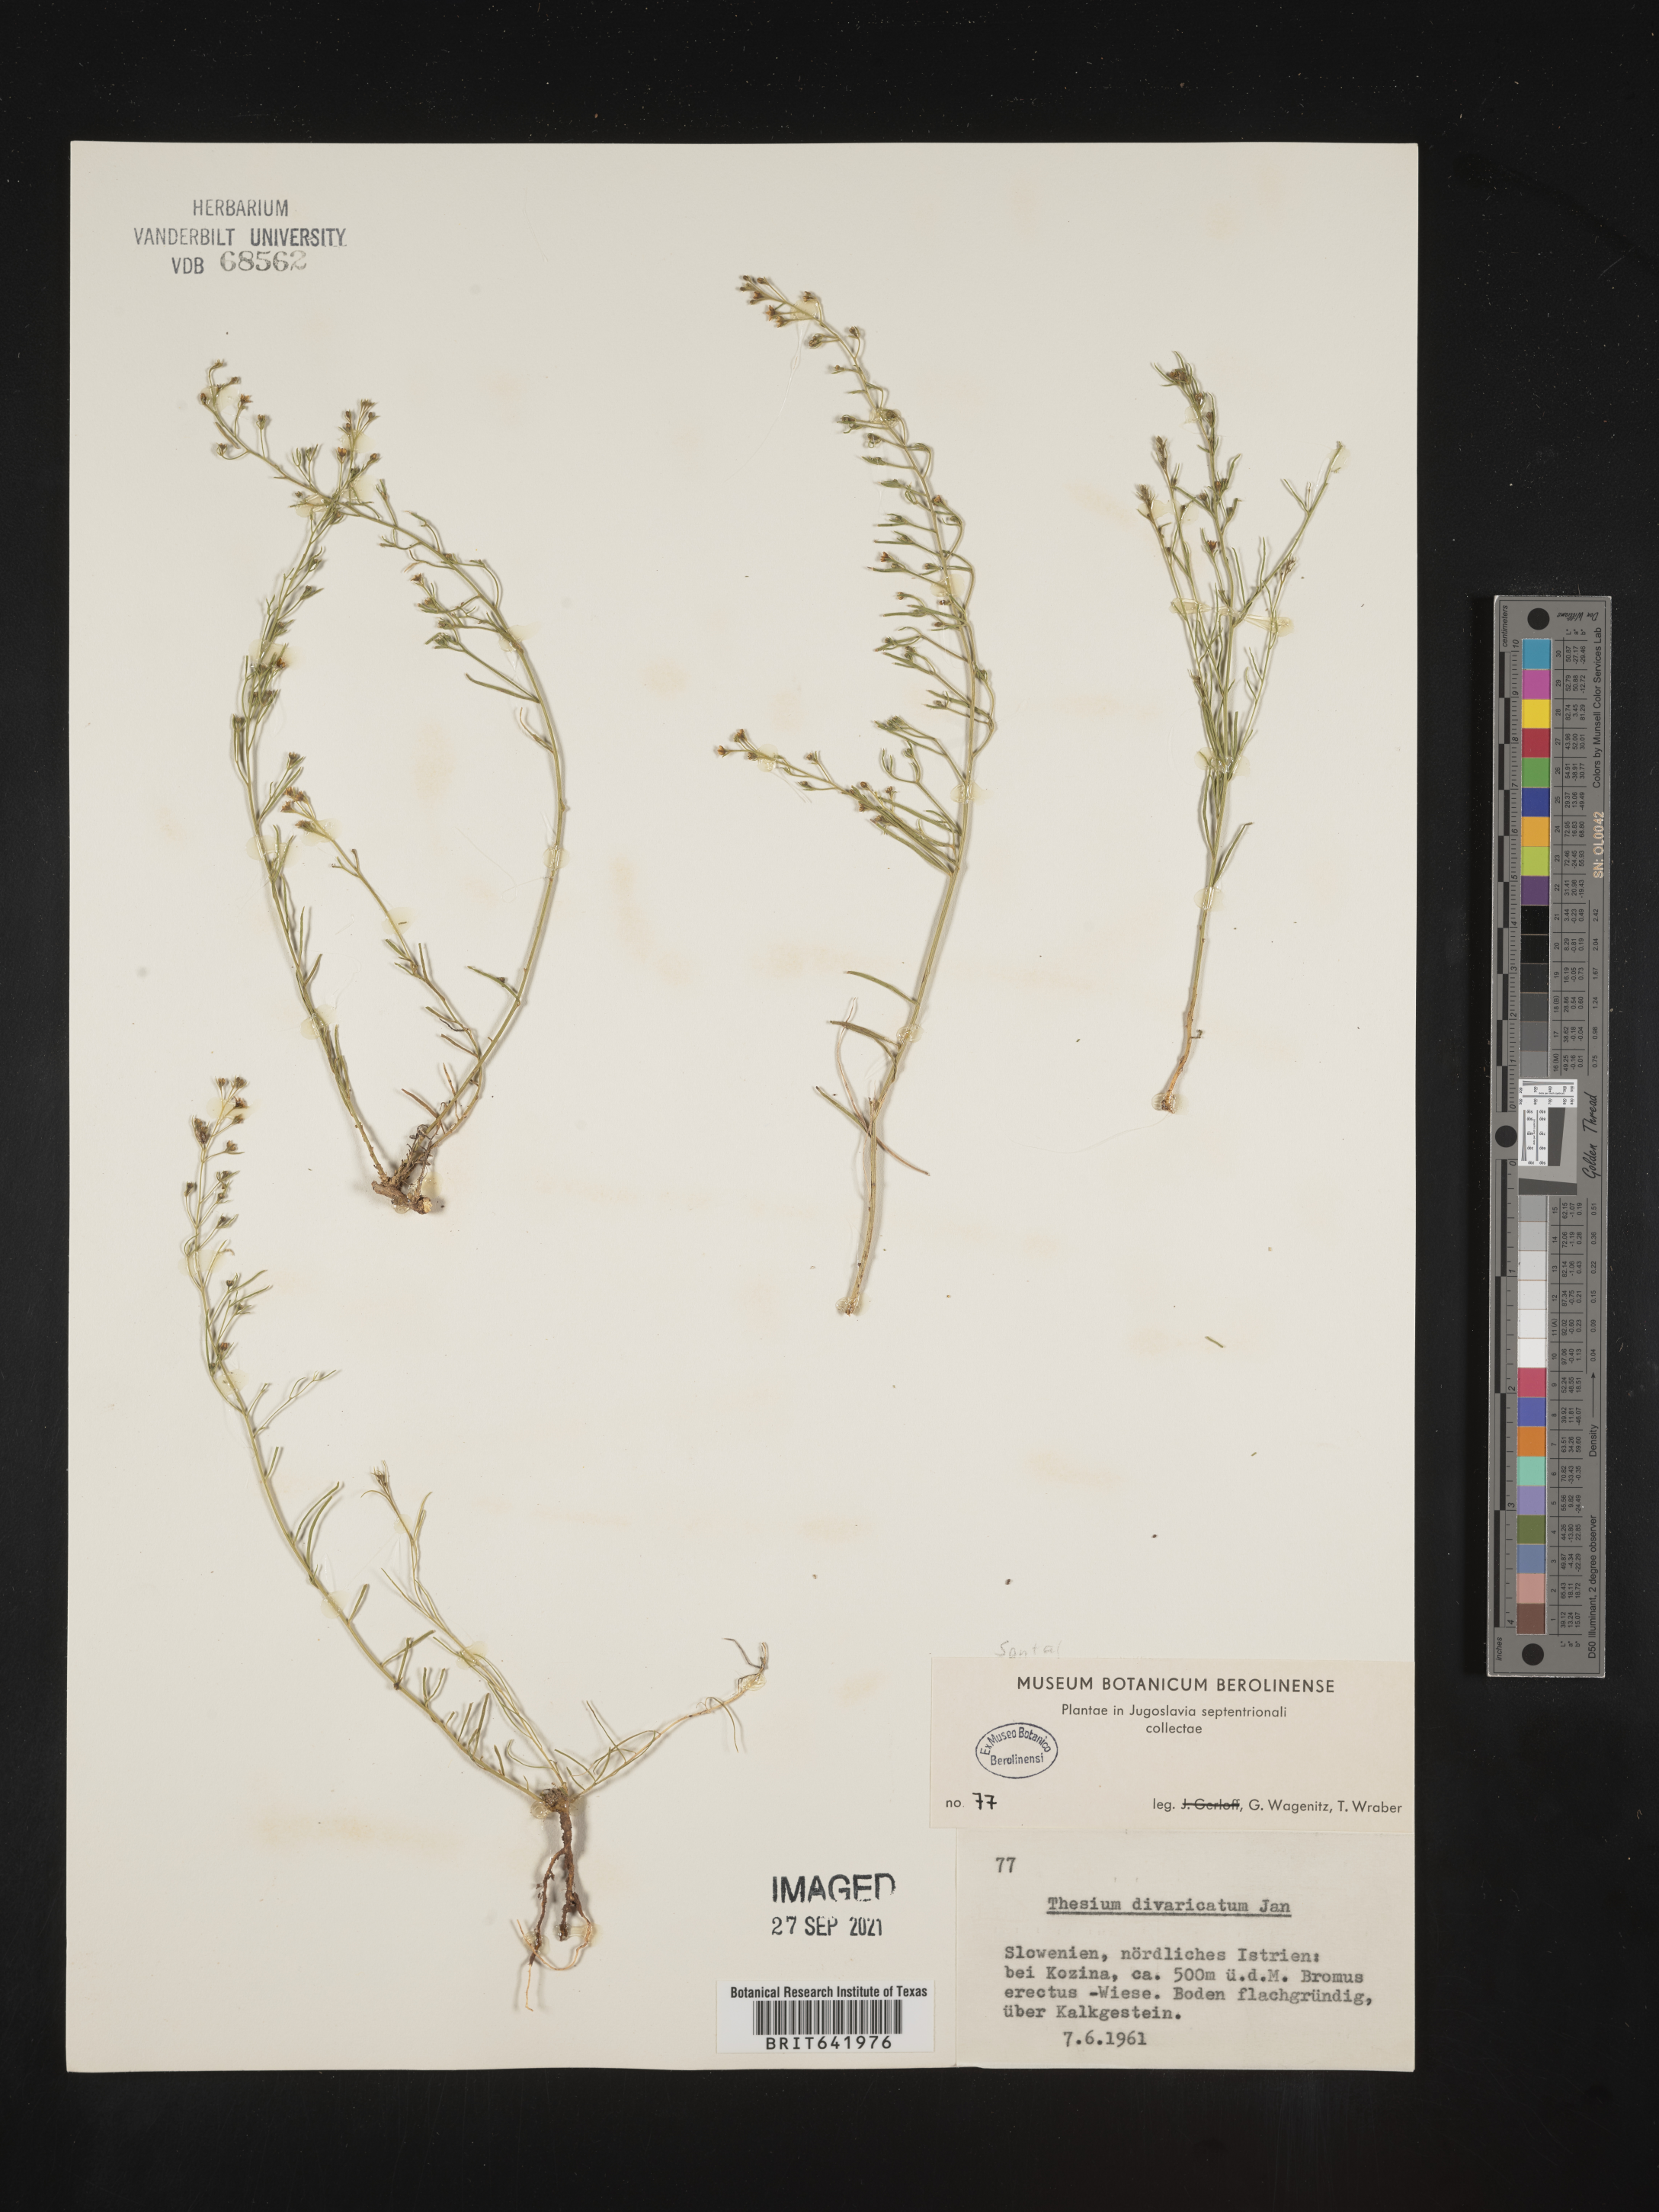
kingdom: Plantae
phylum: Tracheophyta
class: Magnoliopsida
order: Santalales
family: Thesiaceae
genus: Thesium
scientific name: Thesium
